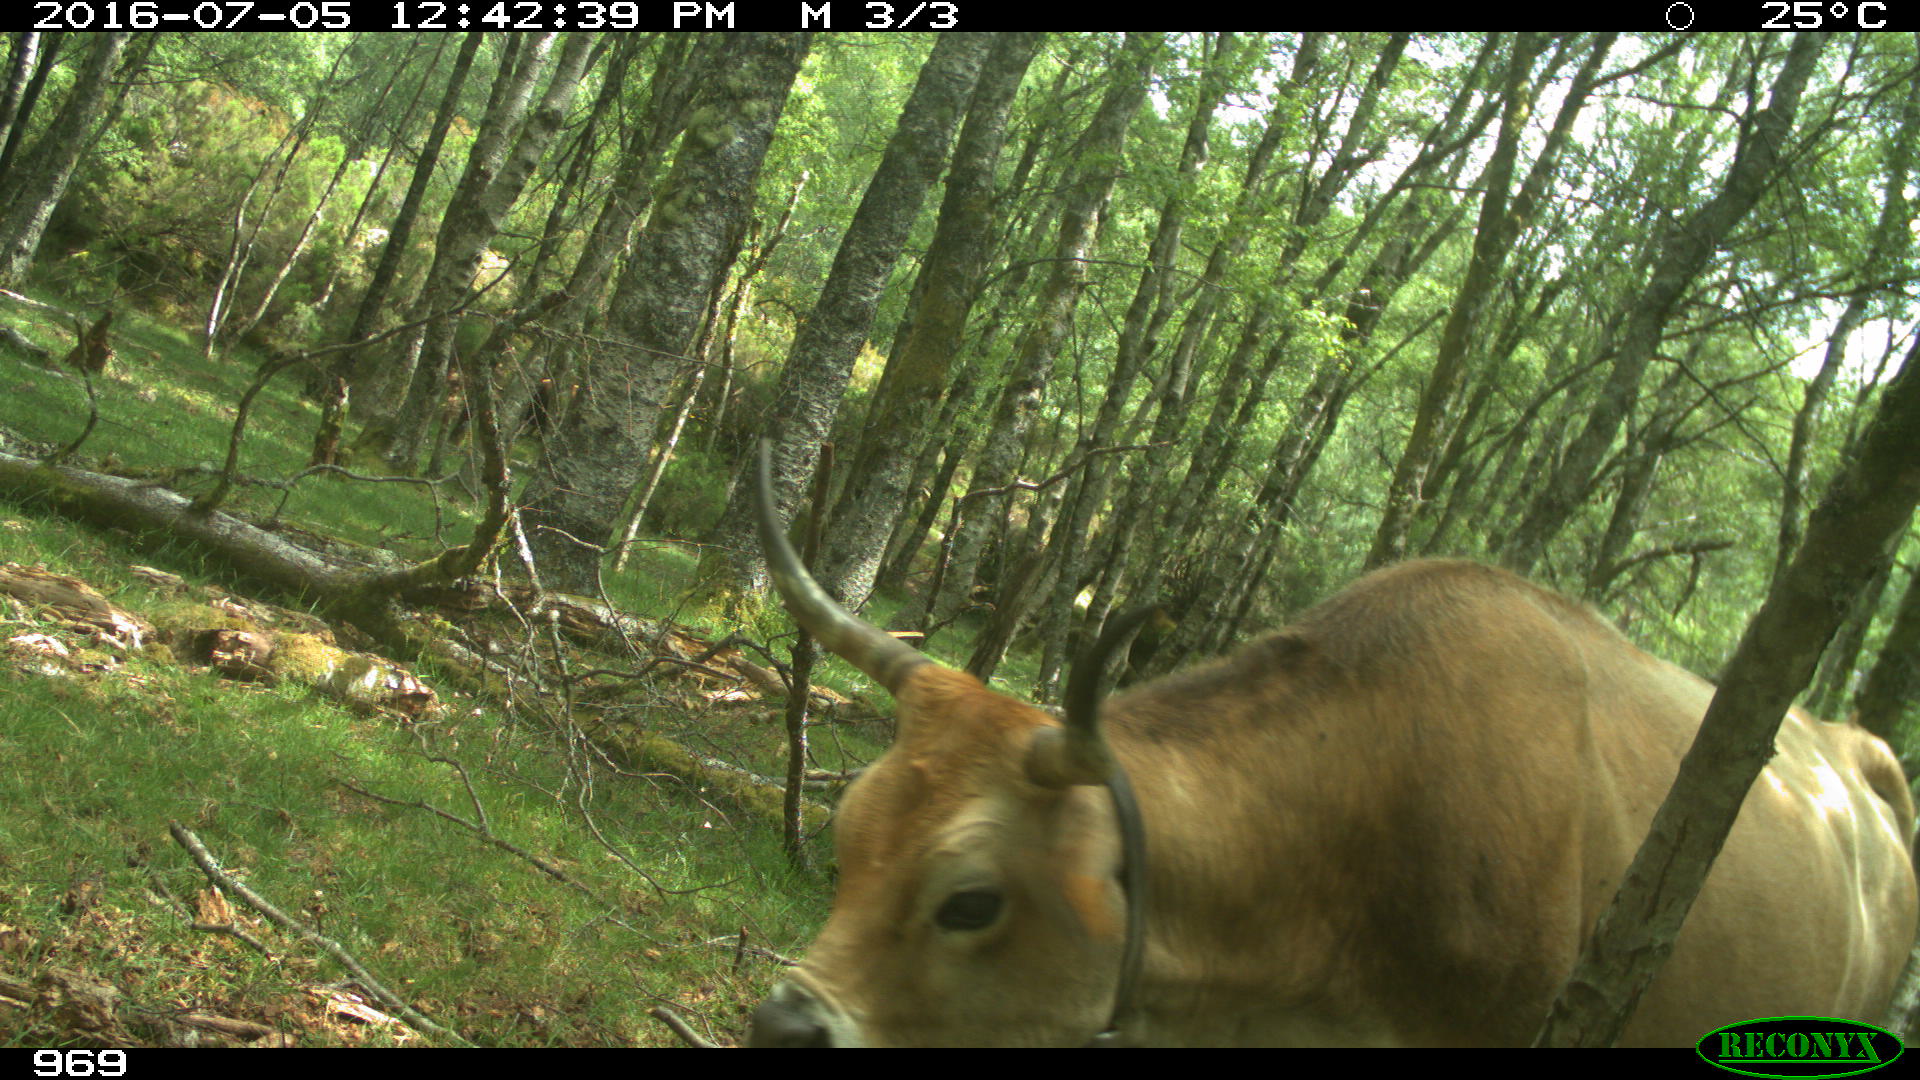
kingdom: Animalia
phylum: Chordata
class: Mammalia
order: Artiodactyla
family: Bovidae
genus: Bos
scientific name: Bos taurus
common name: Domesticated cattle
